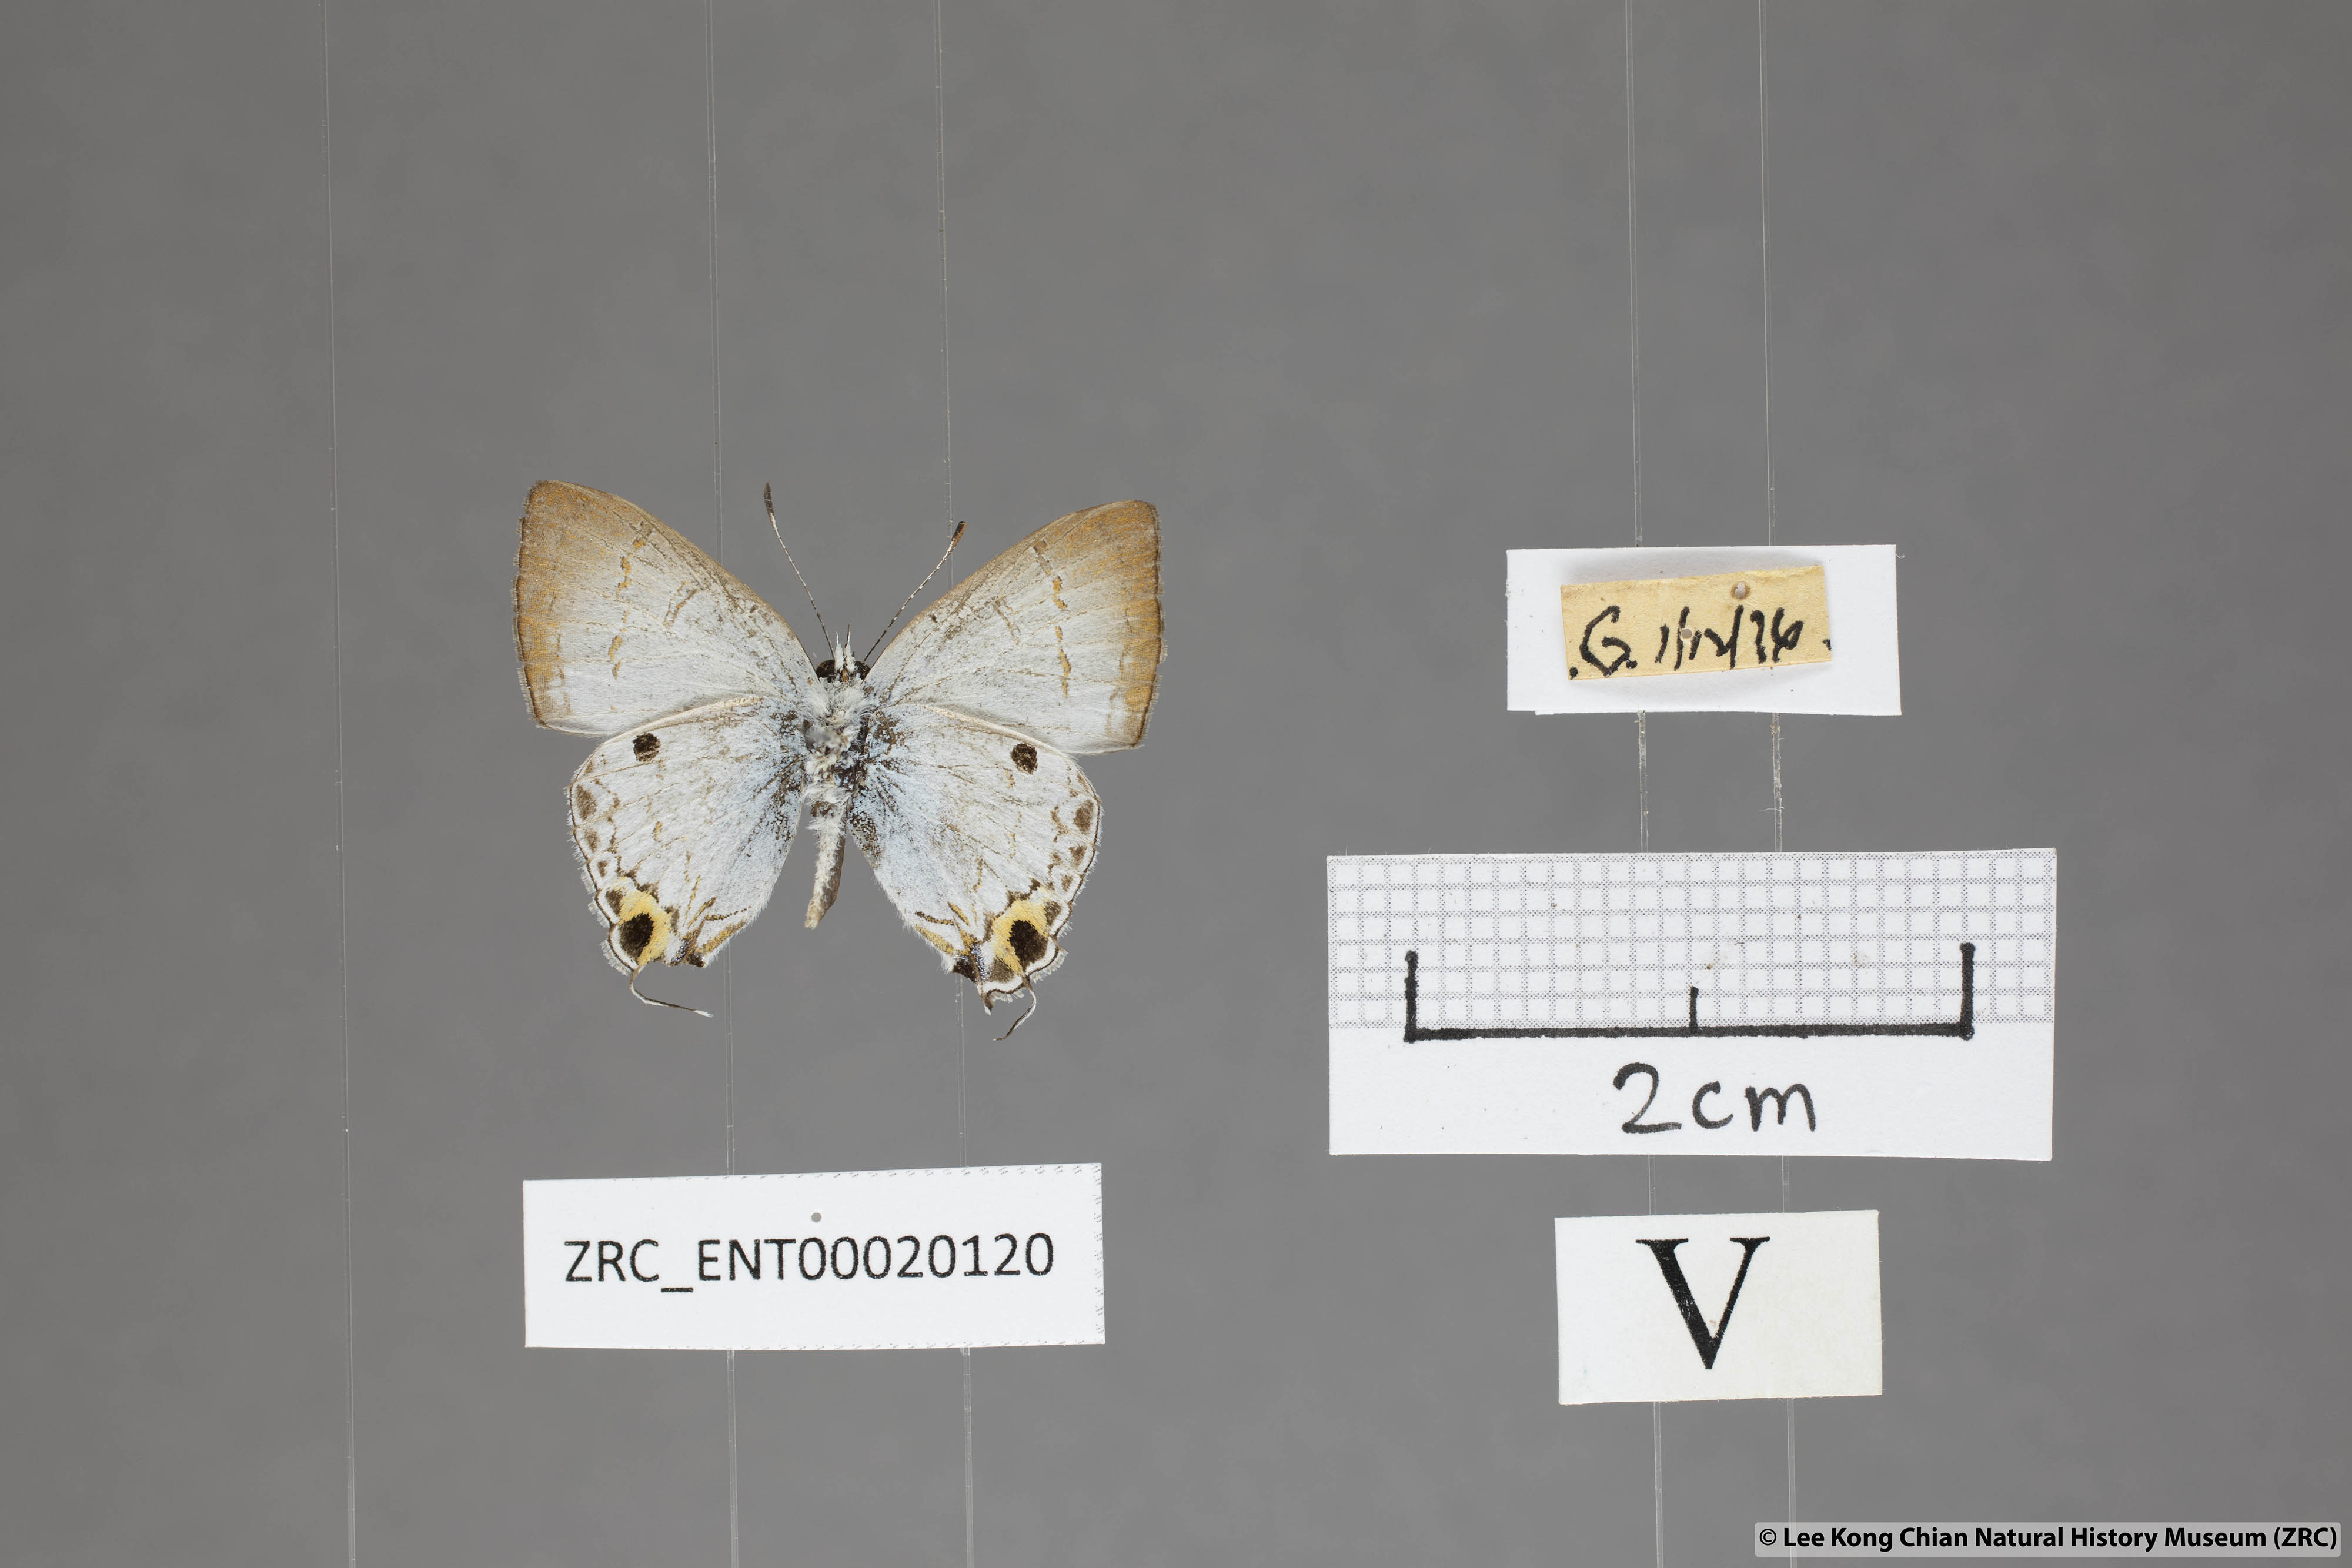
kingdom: Animalia
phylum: Arthropoda
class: Insecta
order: Lepidoptera
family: Lycaenidae
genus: Chliaria
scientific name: Chliaria othona
